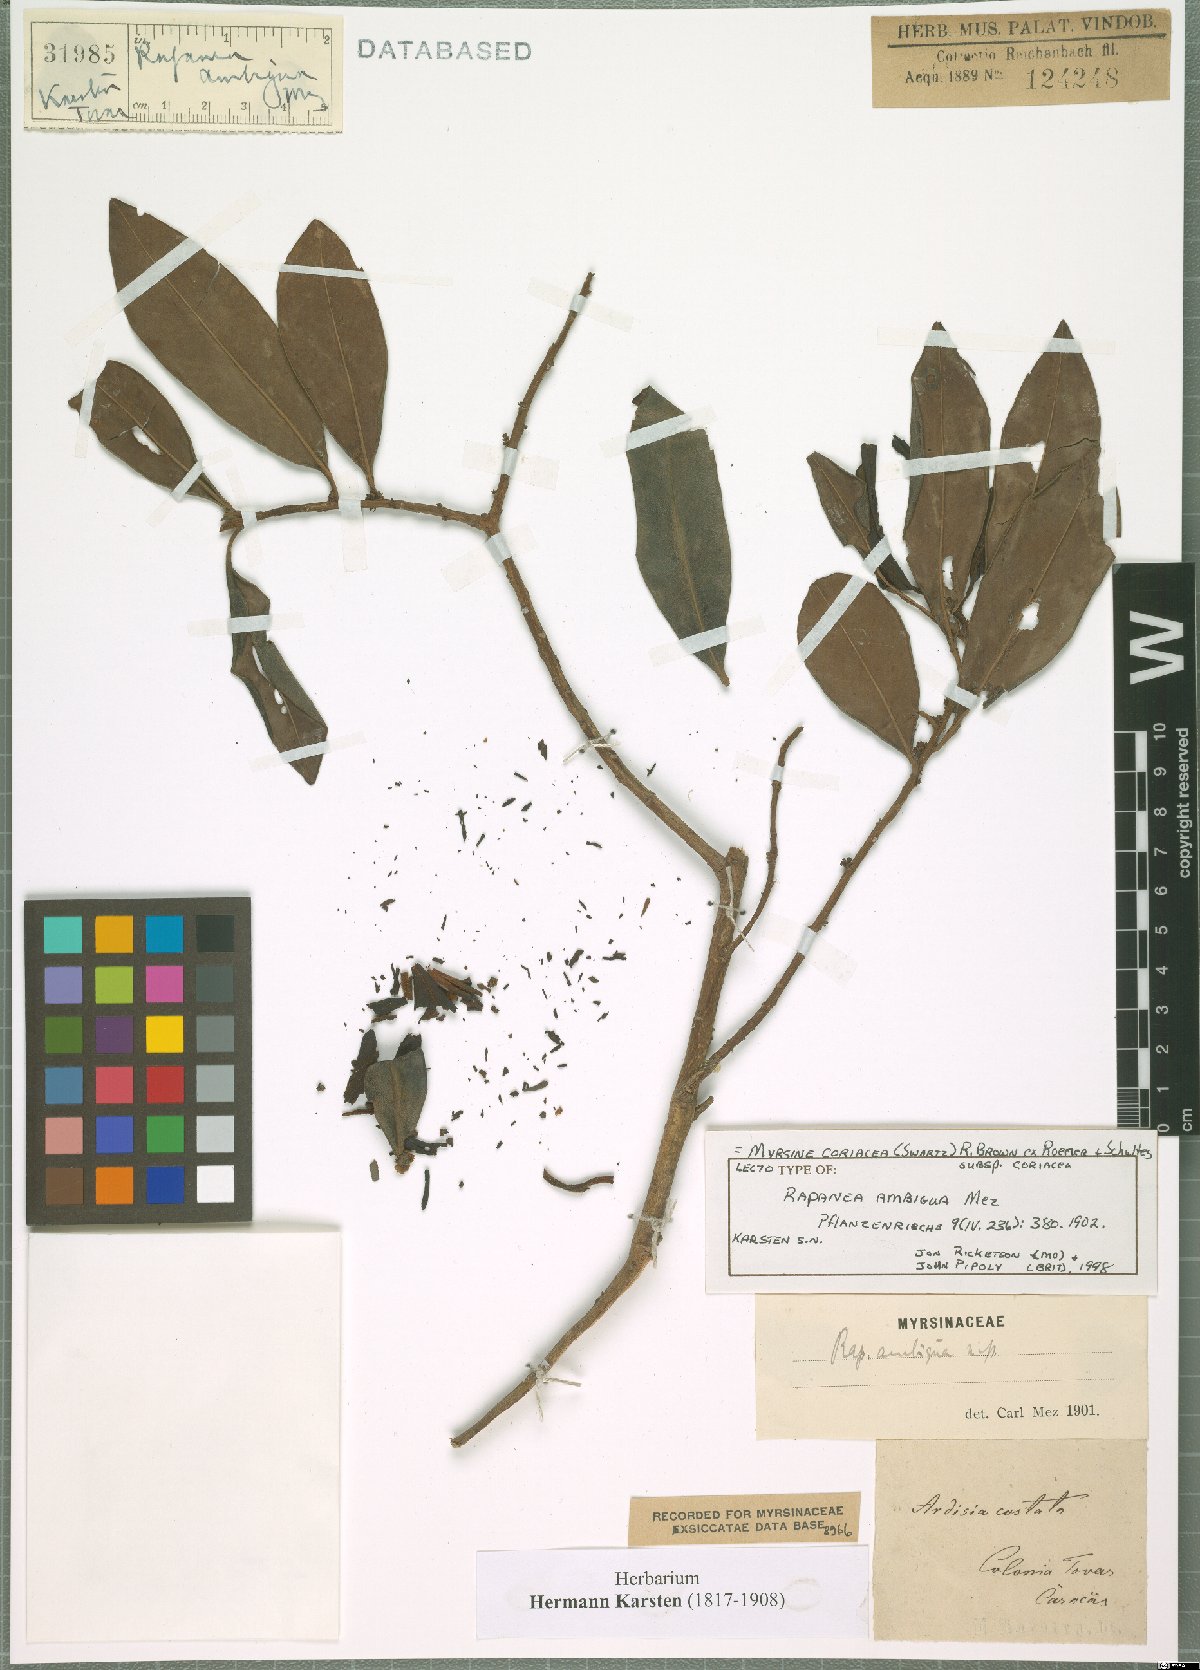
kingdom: Plantae
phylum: Tracheophyta
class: Magnoliopsida
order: Ericales
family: Primulaceae
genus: Myrsine
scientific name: Myrsine coriacea
